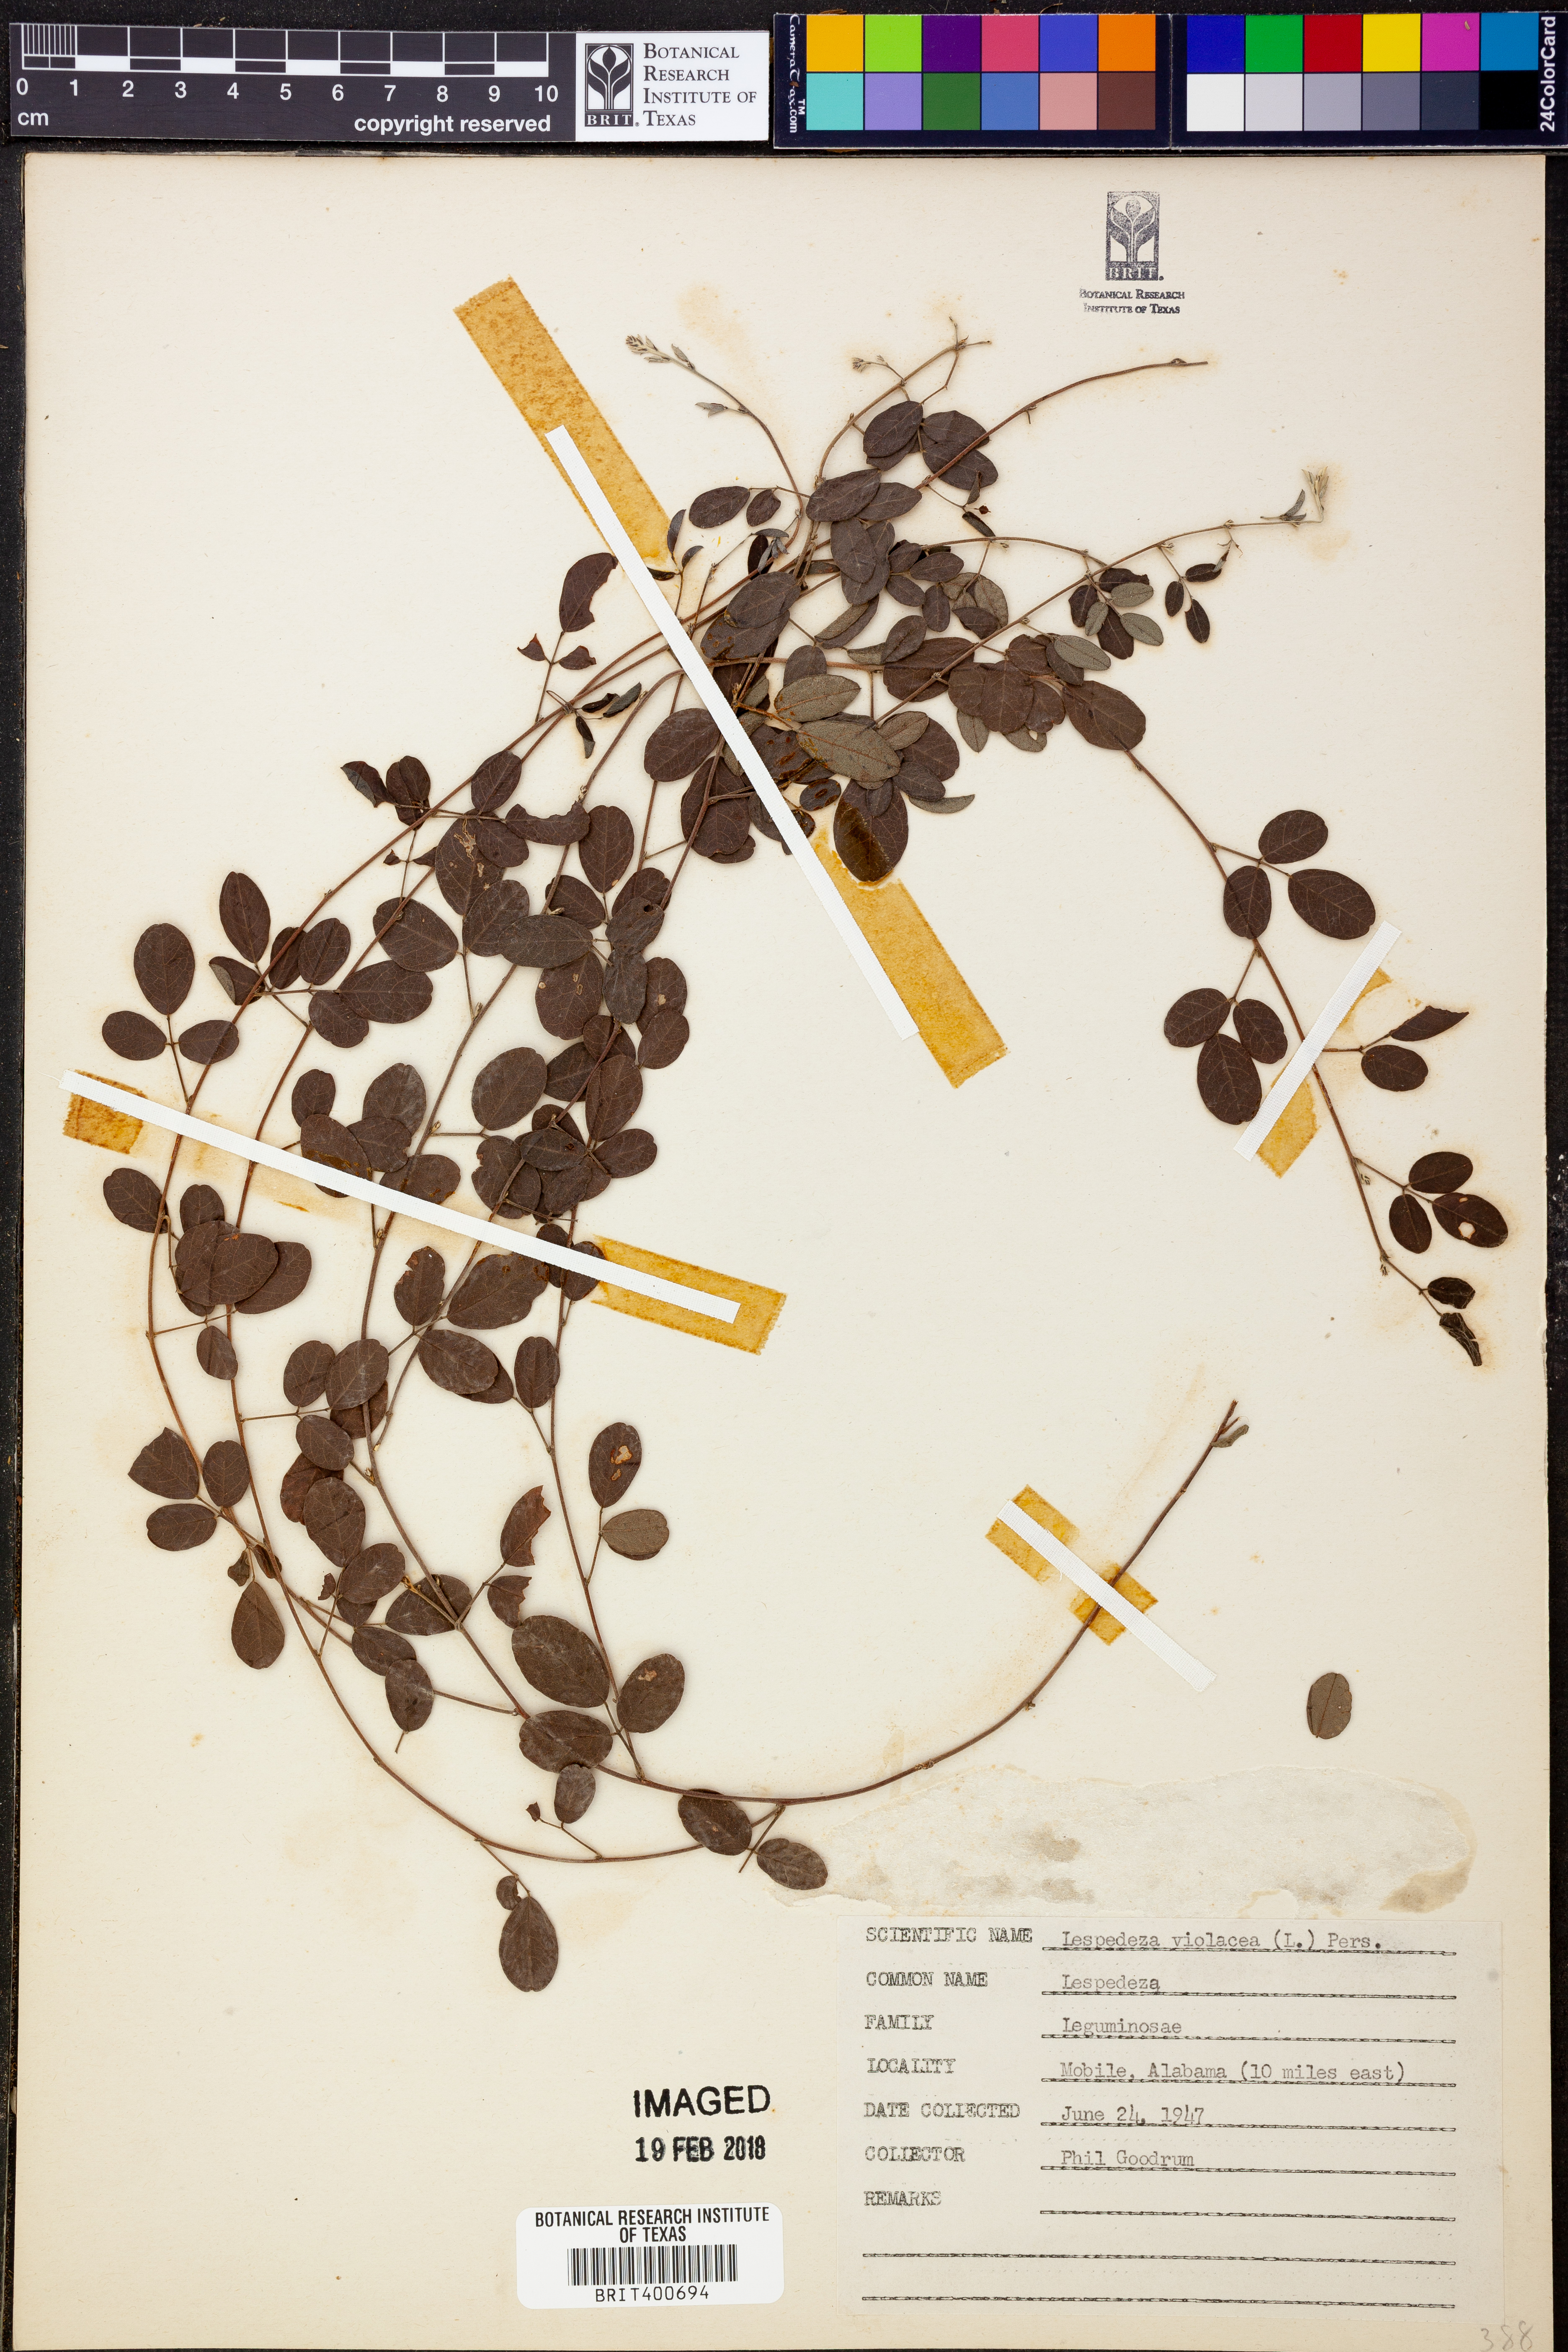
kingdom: Plantae
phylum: Tracheophyta
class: Magnoliopsida
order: Fabales
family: Fabaceae
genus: Lespedeza
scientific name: Lespedeza violacea
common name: Wand bush-clover
